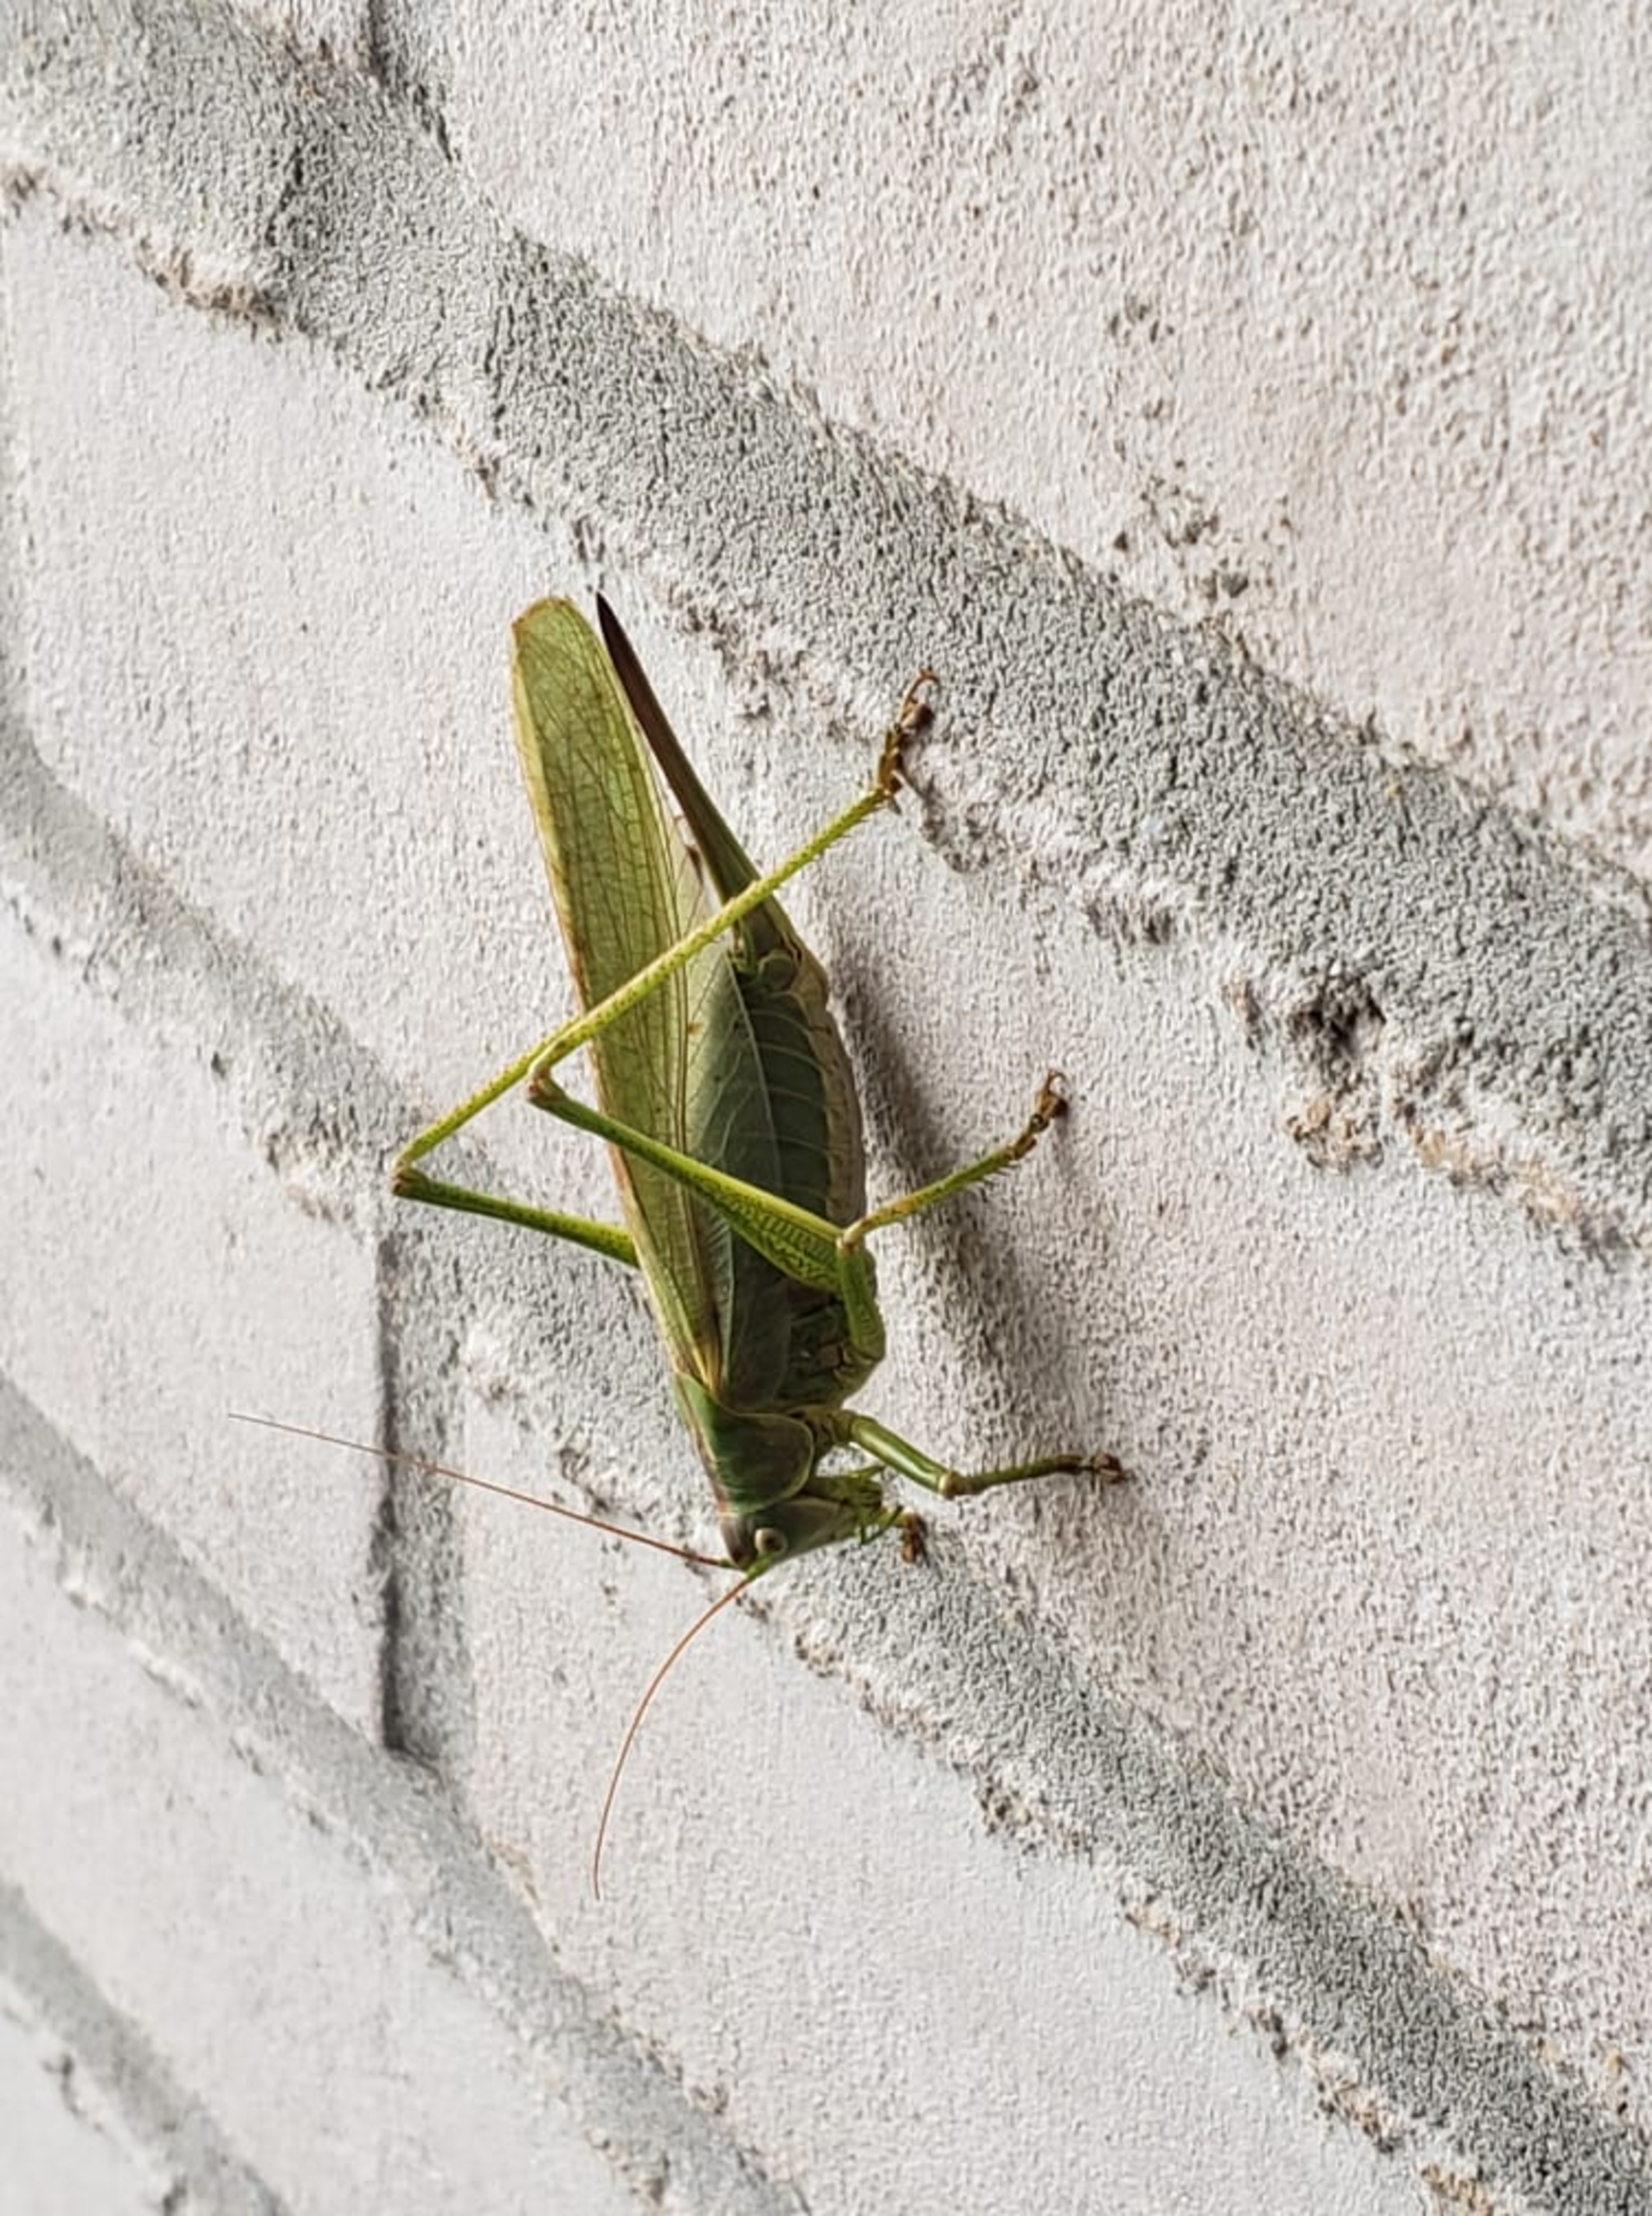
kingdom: Animalia
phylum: Arthropoda
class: Insecta
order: Orthoptera
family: Tettigoniidae
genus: Tettigonia
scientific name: Tettigonia viridissima
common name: Stor grøn løvgræshoppe
